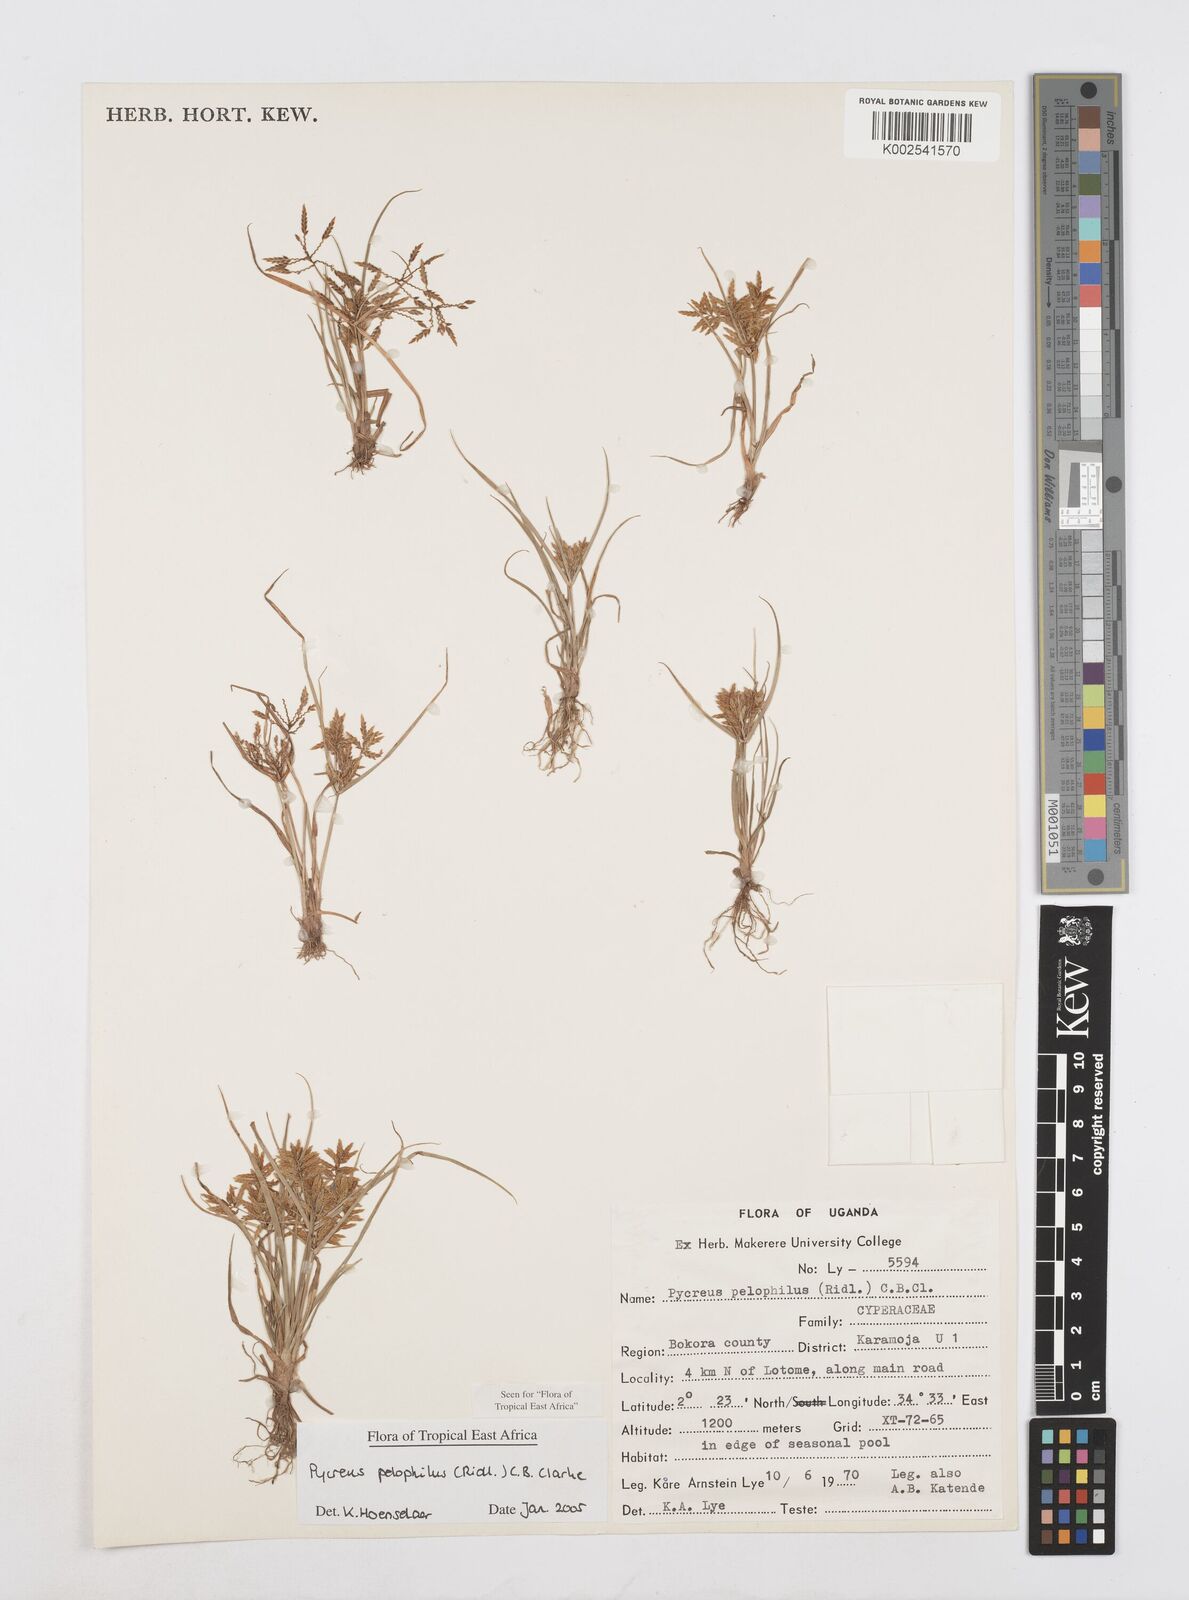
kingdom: Plantae
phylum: Tracheophyta
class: Liliopsida
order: Poales
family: Cyperaceae
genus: Cyperus
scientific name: Cyperus pelophilus
